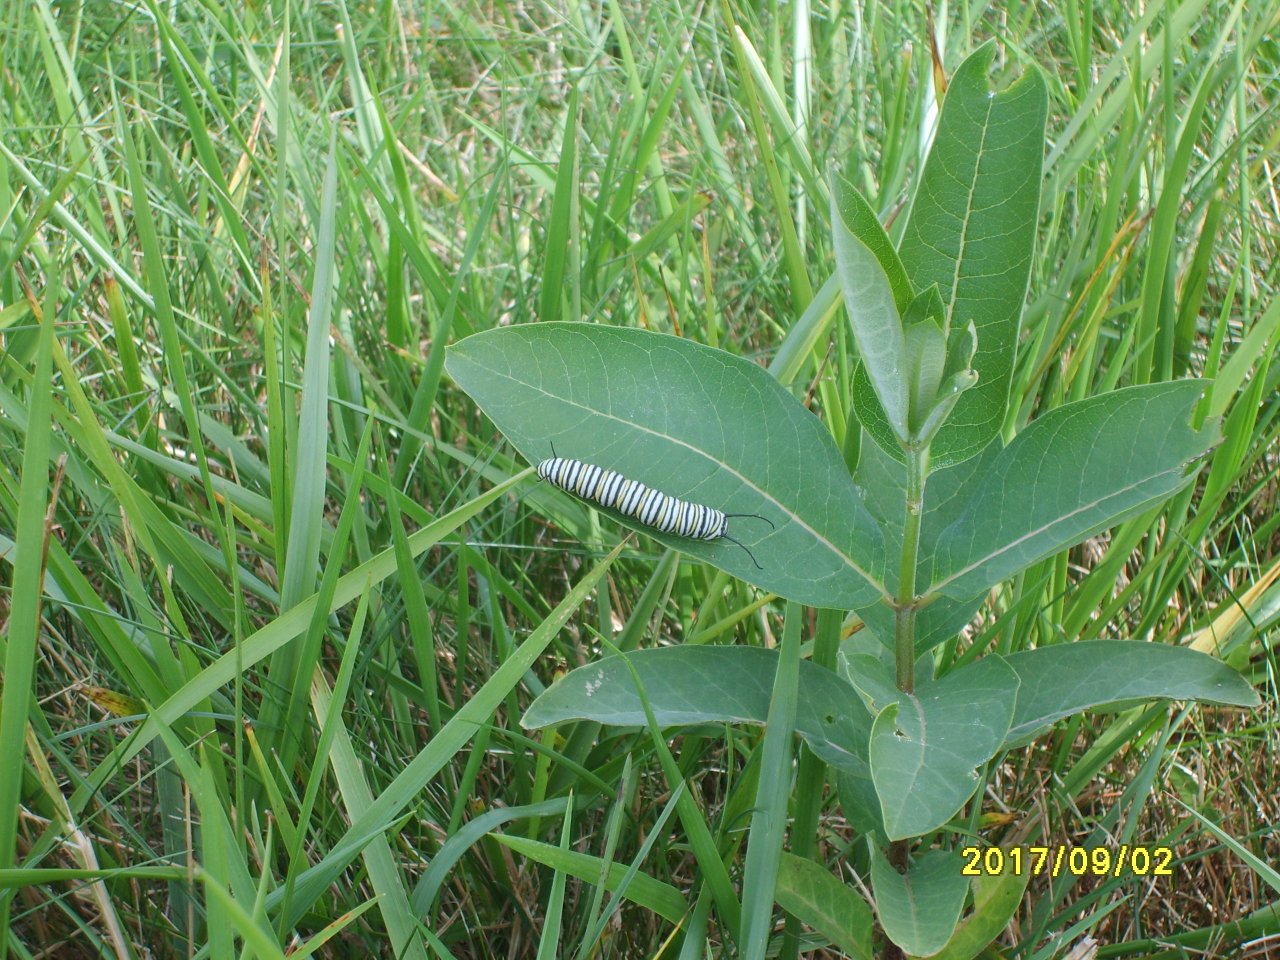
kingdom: Animalia
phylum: Arthropoda
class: Insecta
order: Lepidoptera
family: Nymphalidae
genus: Danaus
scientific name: Danaus plexippus
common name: Monarch
